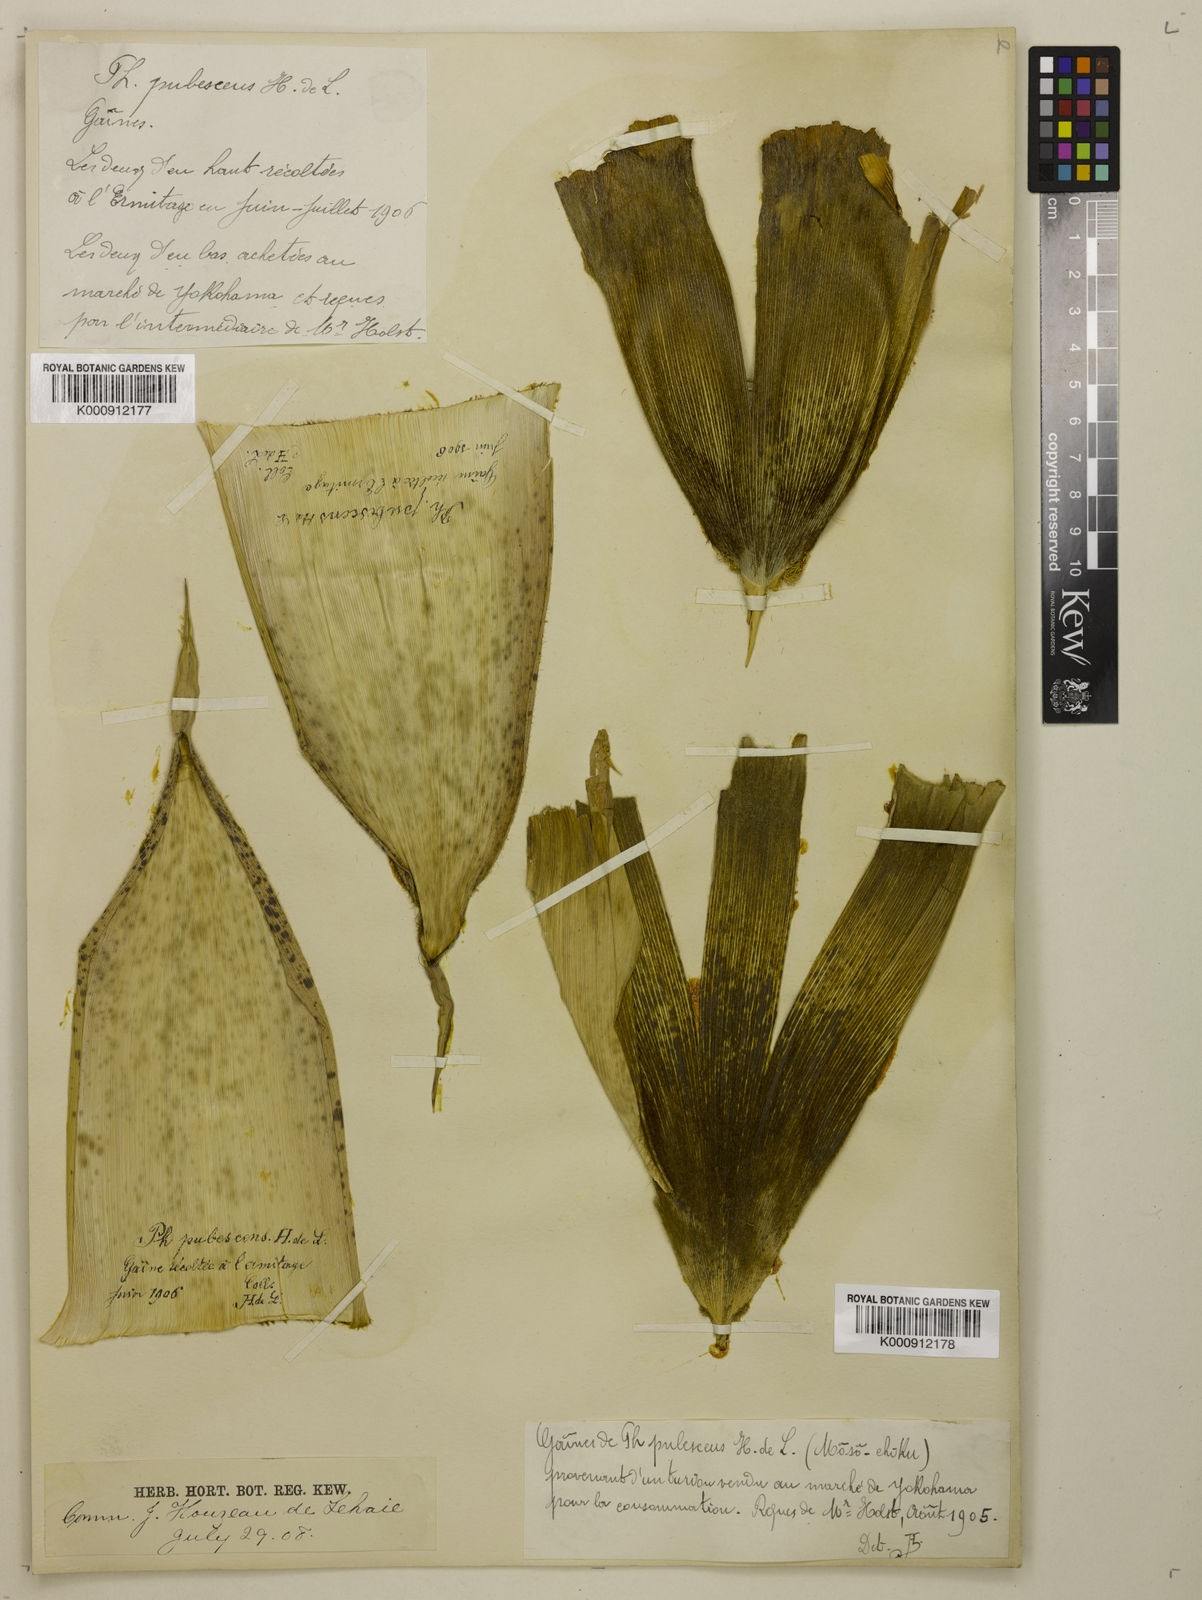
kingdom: Plantae
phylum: Tracheophyta
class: Liliopsida
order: Poales
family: Poaceae
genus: Phyllostachys
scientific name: Phyllostachys
